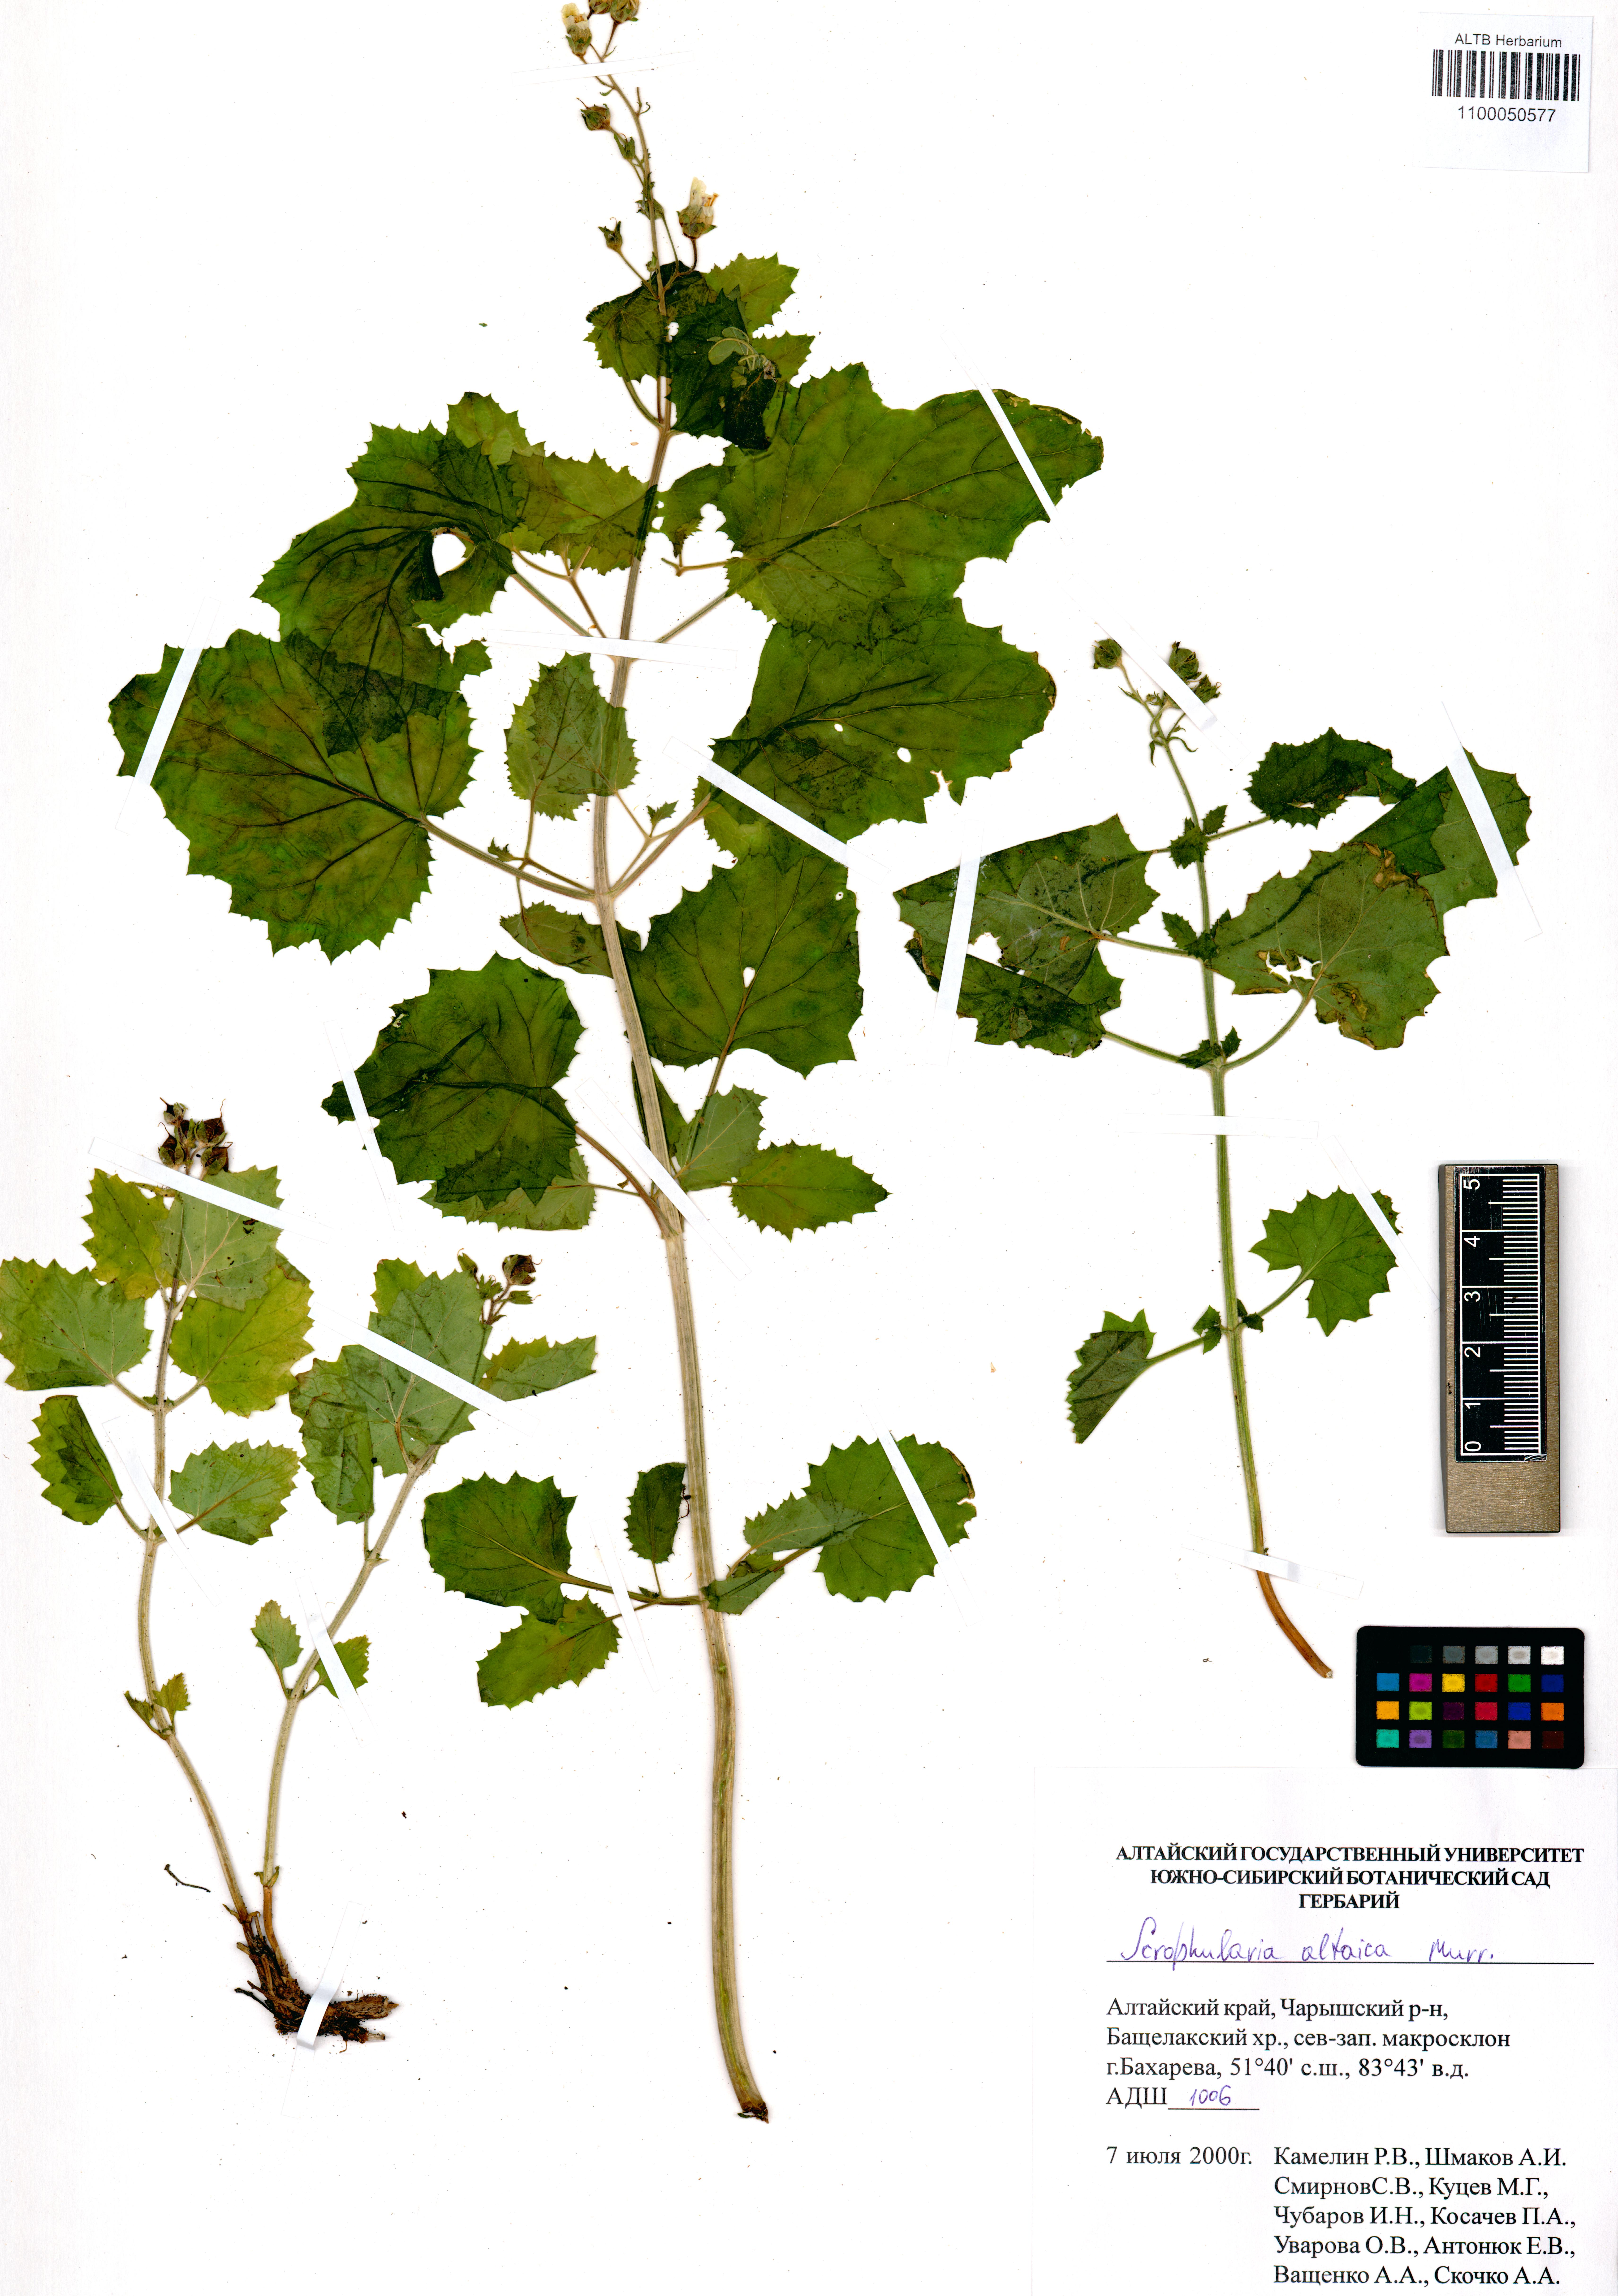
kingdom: Plantae
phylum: Tracheophyta
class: Magnoliopsida
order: Lamiales
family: Scrophulariaceae
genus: Scrophularia
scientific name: Scrophularia altaica
